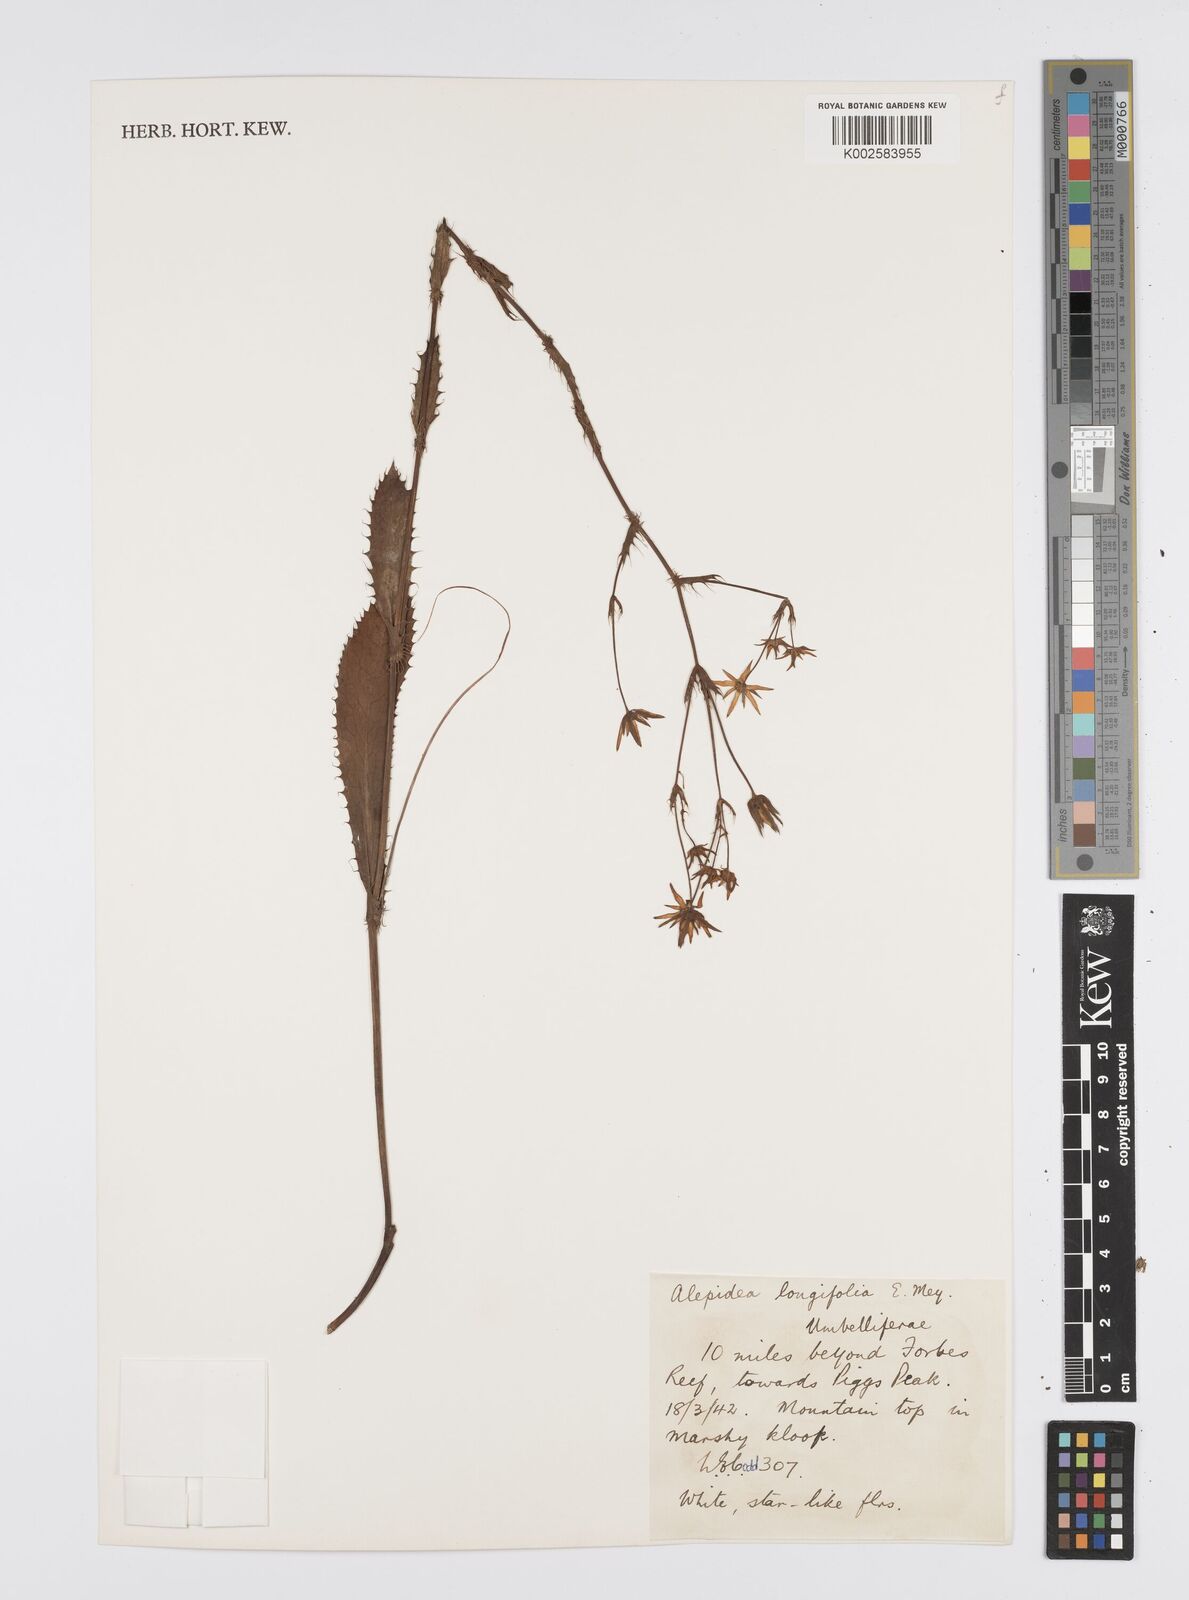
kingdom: Plantae
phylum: Tracheophyta
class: Magnoliopsida
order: Apiales
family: Apiaceae
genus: Alepidea
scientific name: Alepidea
